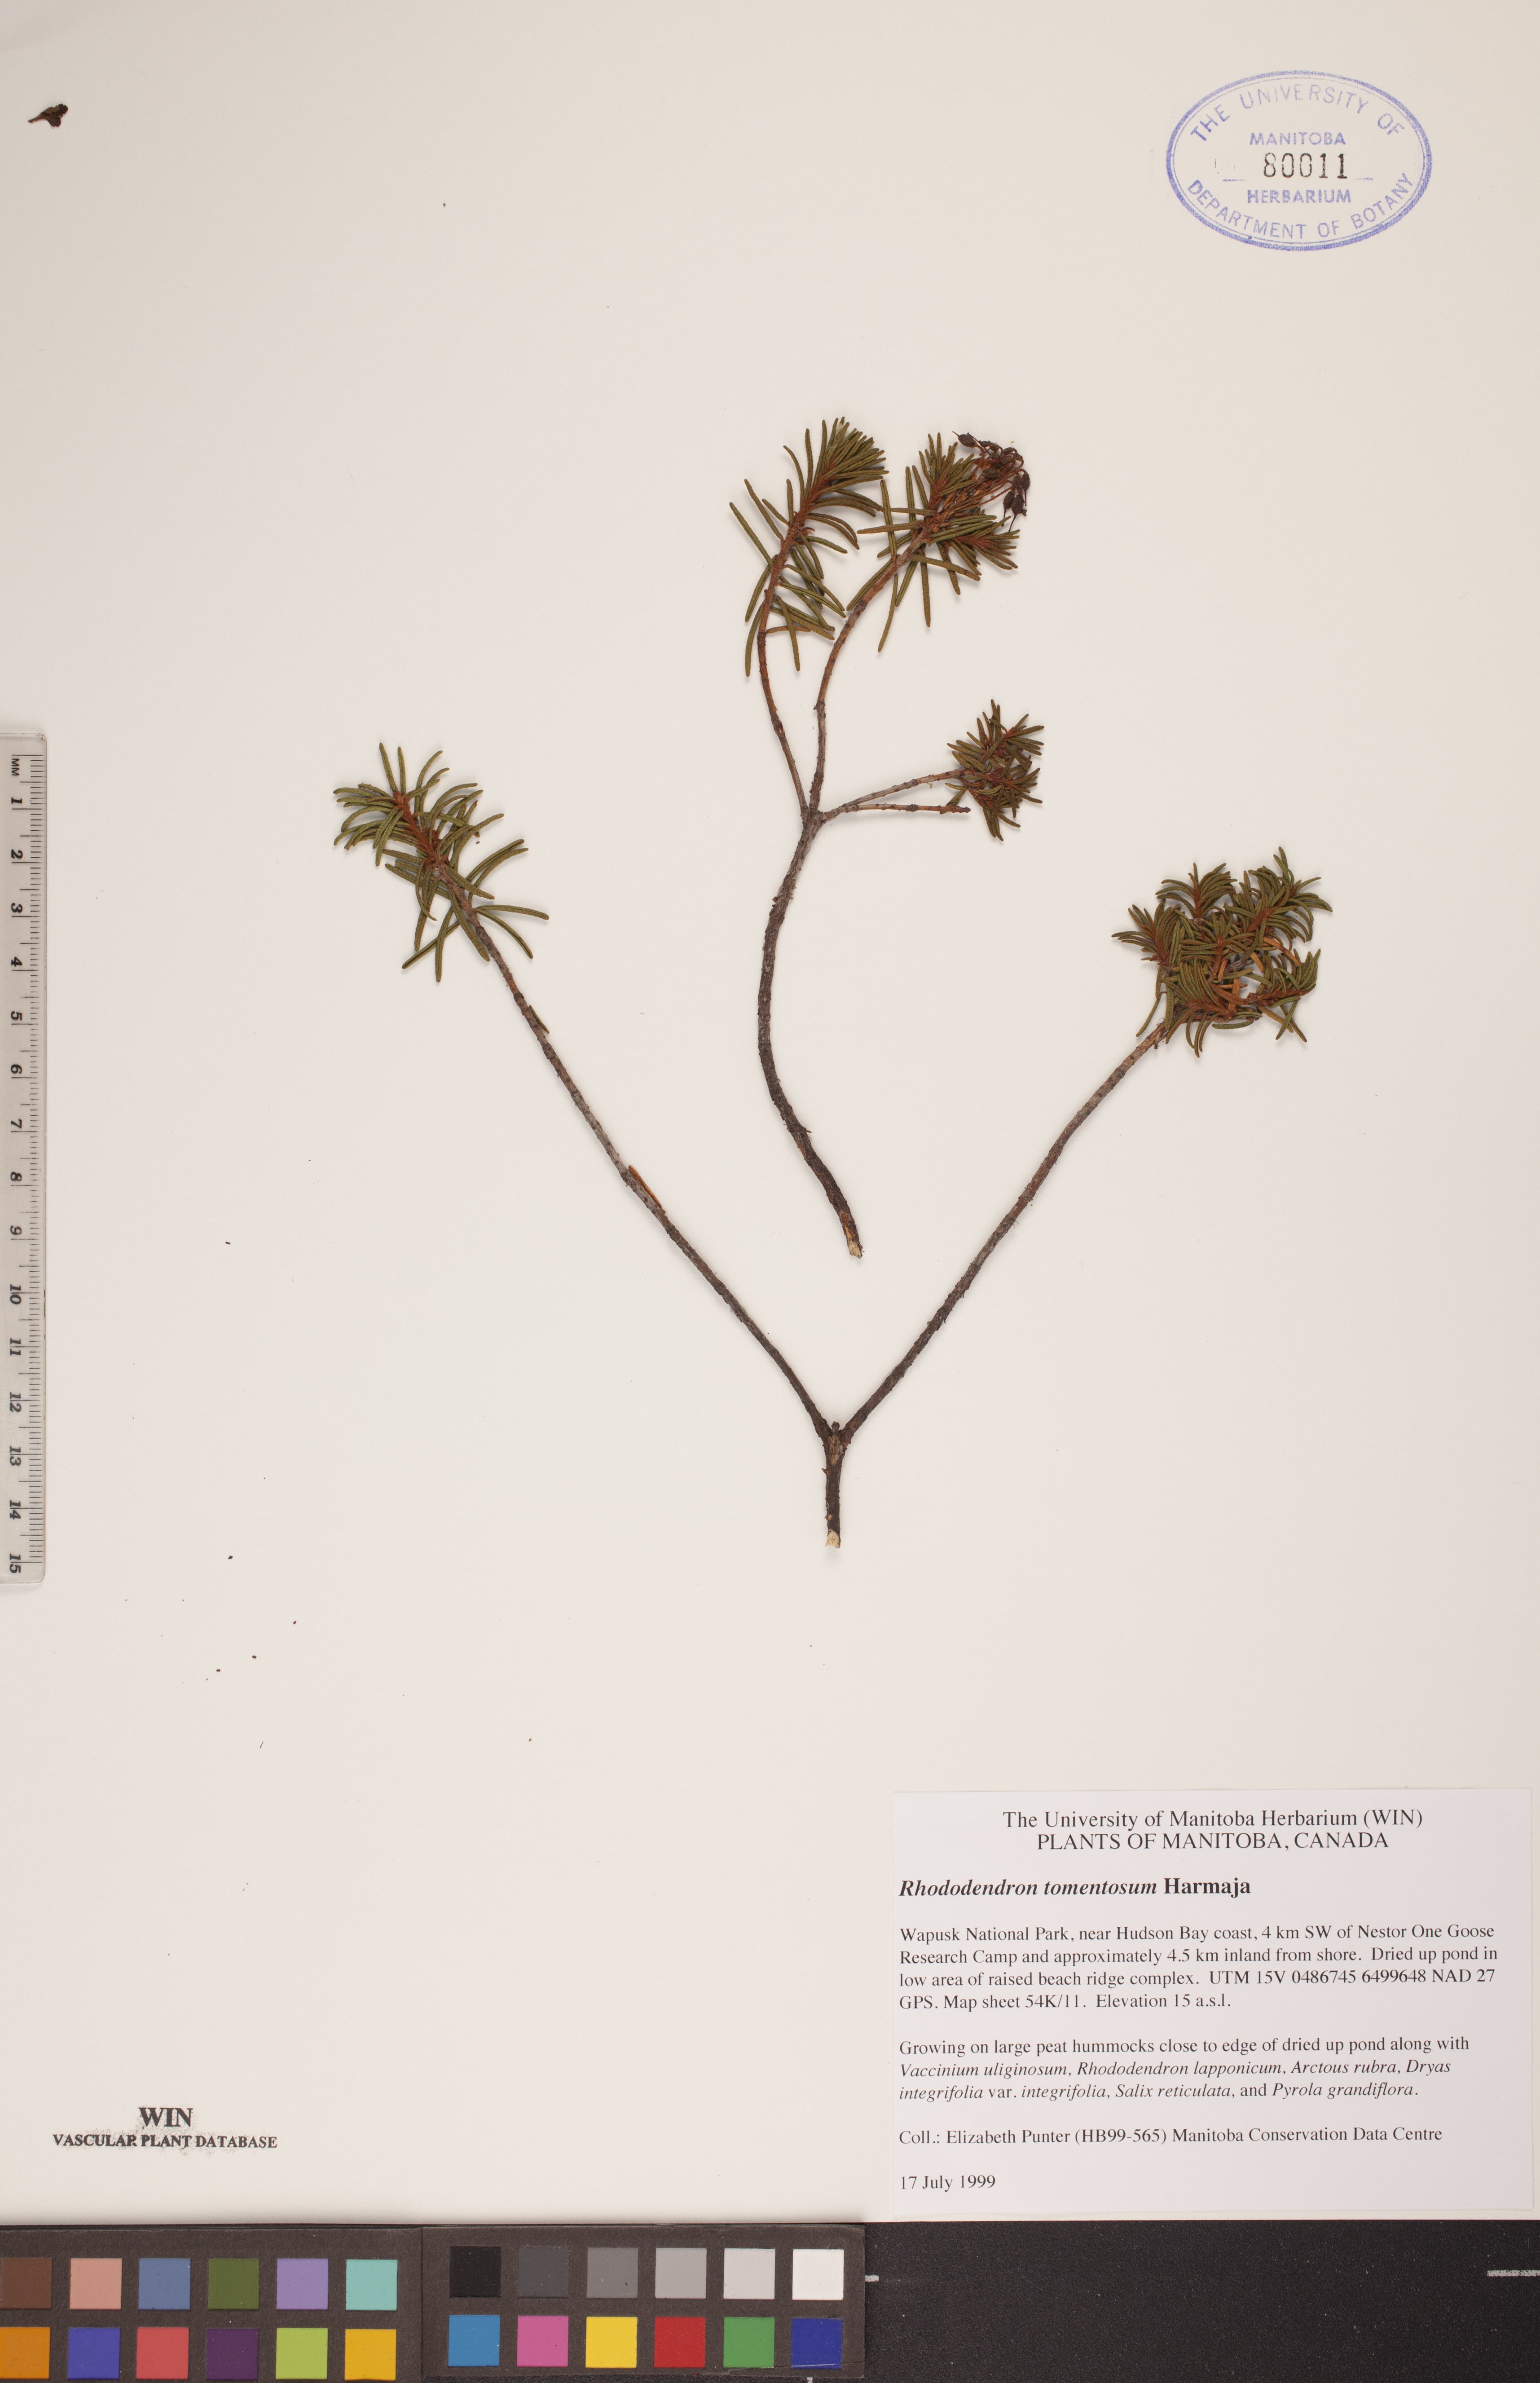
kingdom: Plantae
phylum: Tracheophyta
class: Magnoliopsida
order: Ericales
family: Ericaceae
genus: Rhododendron
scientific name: Rhododendron tomentosum
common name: Marsh labrador tea
